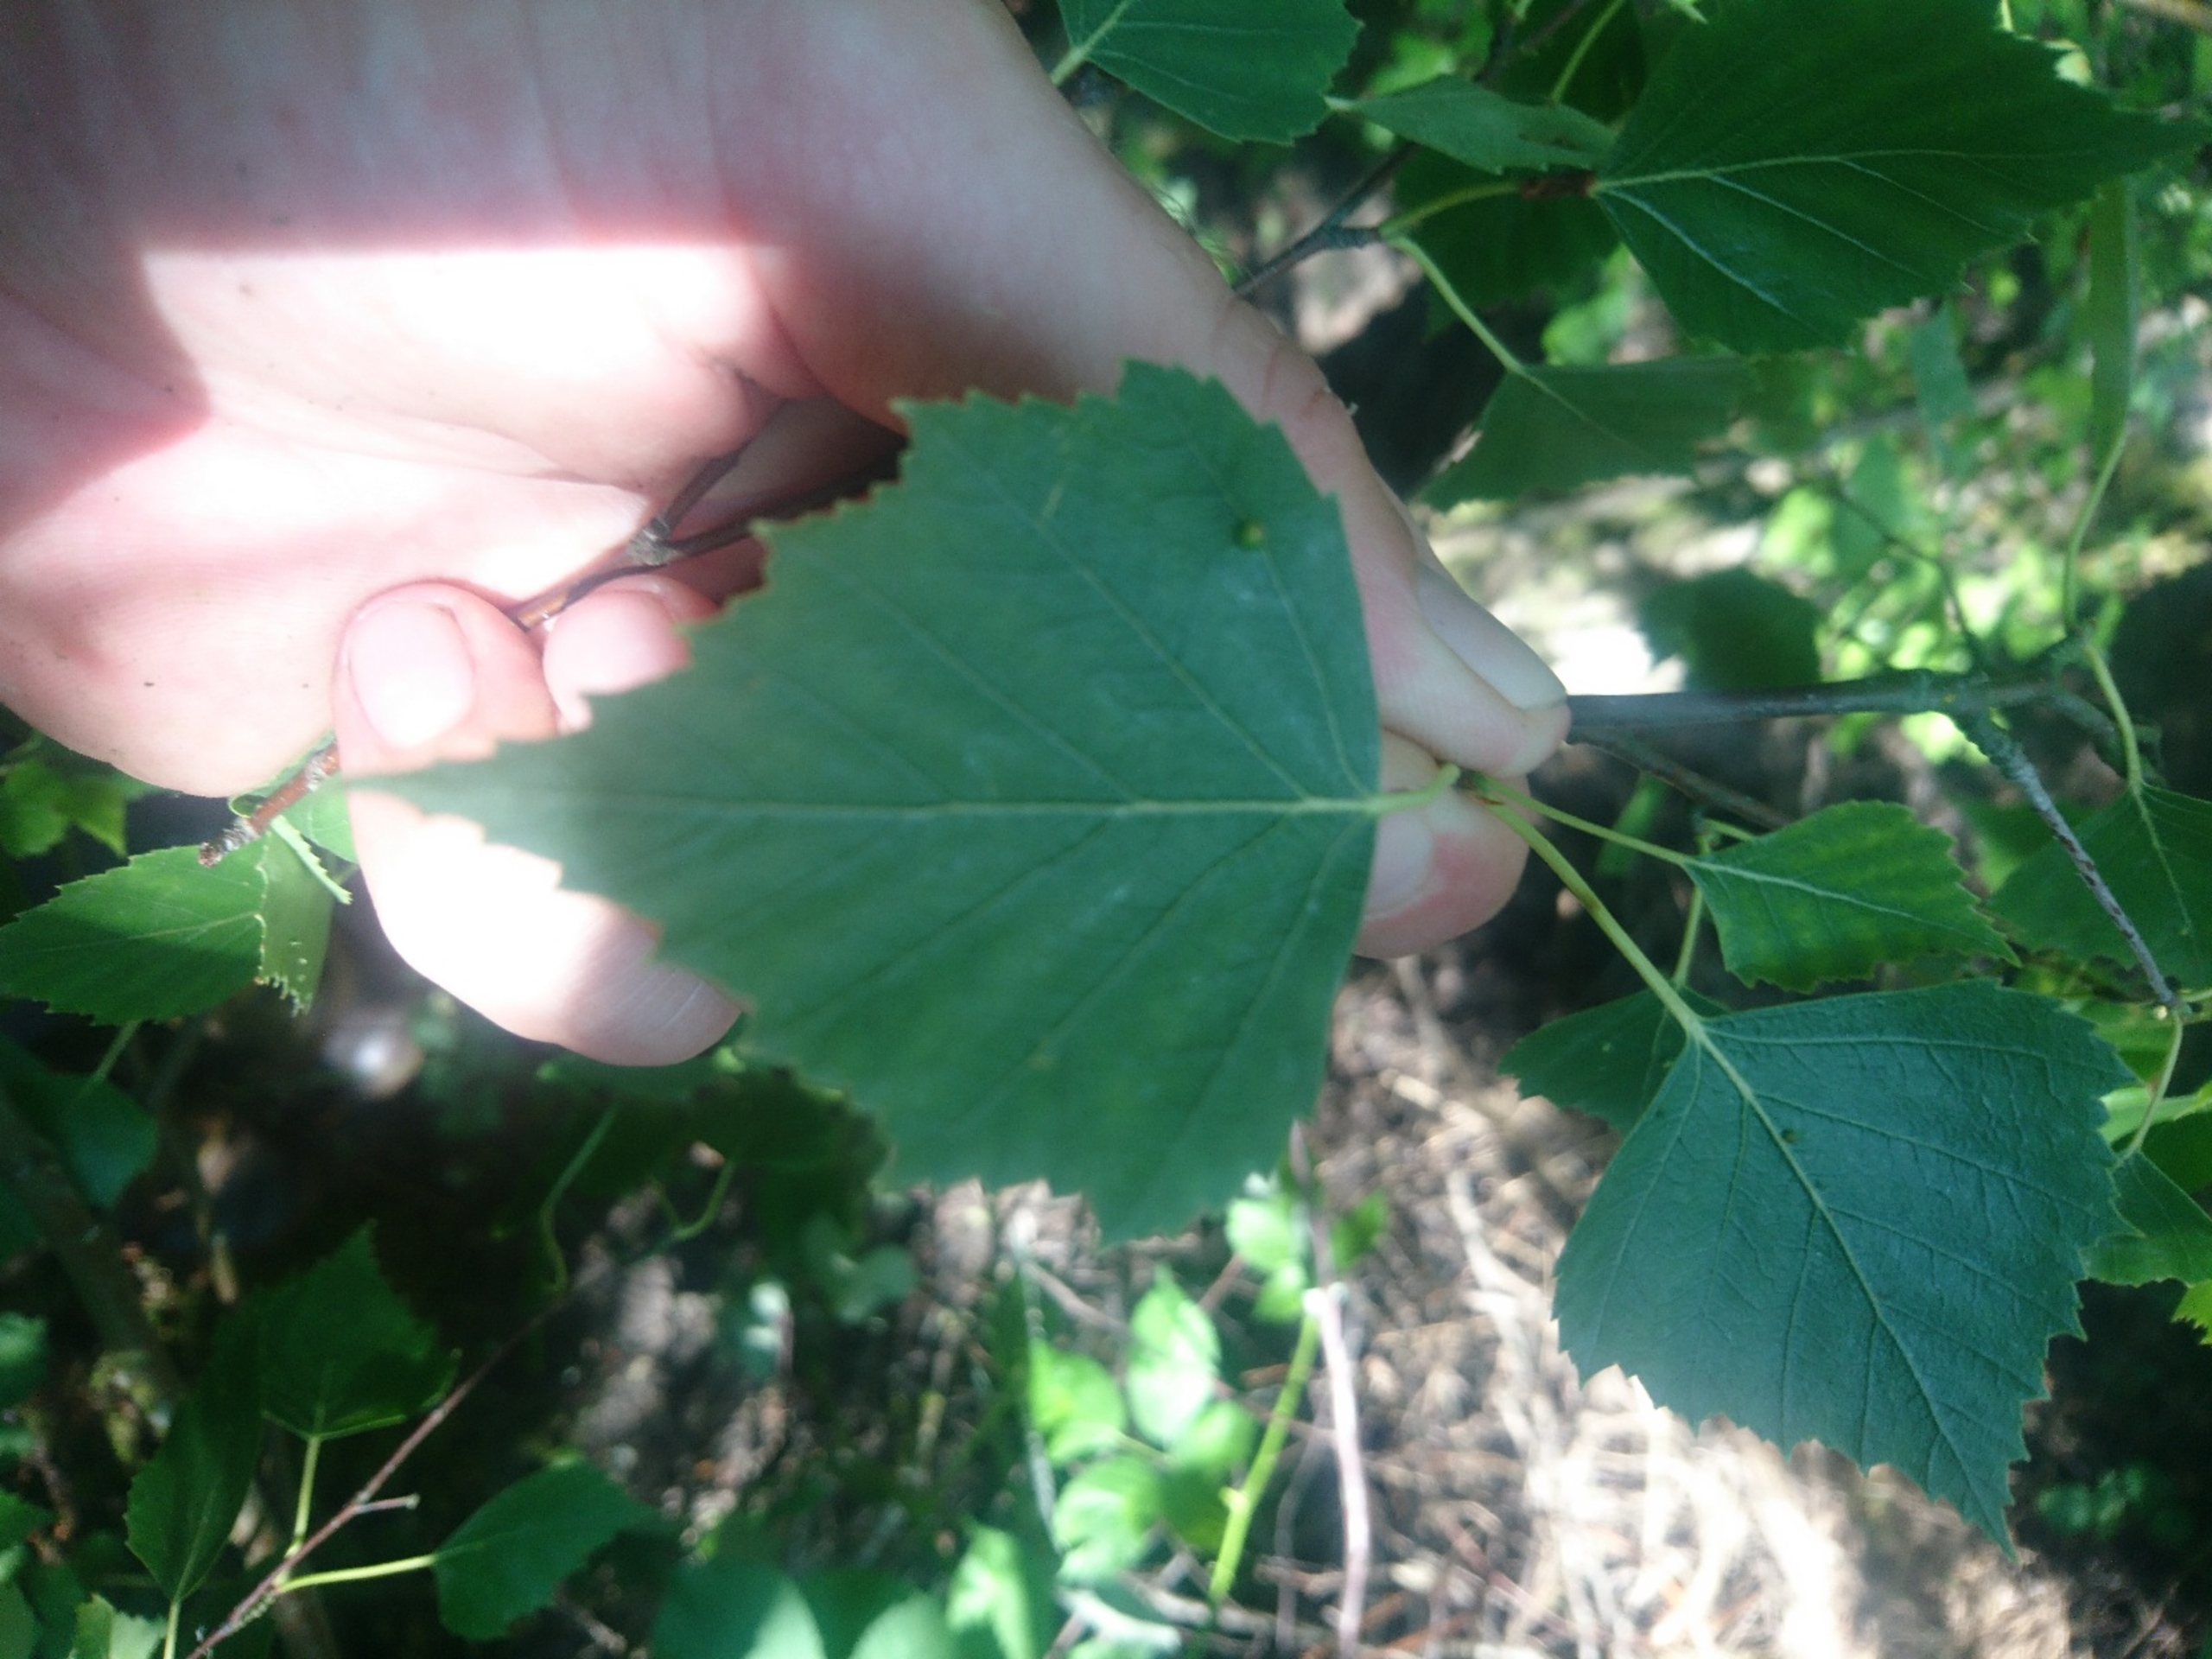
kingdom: Plantae
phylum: Tracheophyta
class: Magnoliopsida
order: Fagales
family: Betulaceae
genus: Betula
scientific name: Betula pendula
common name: Vorte-birk
